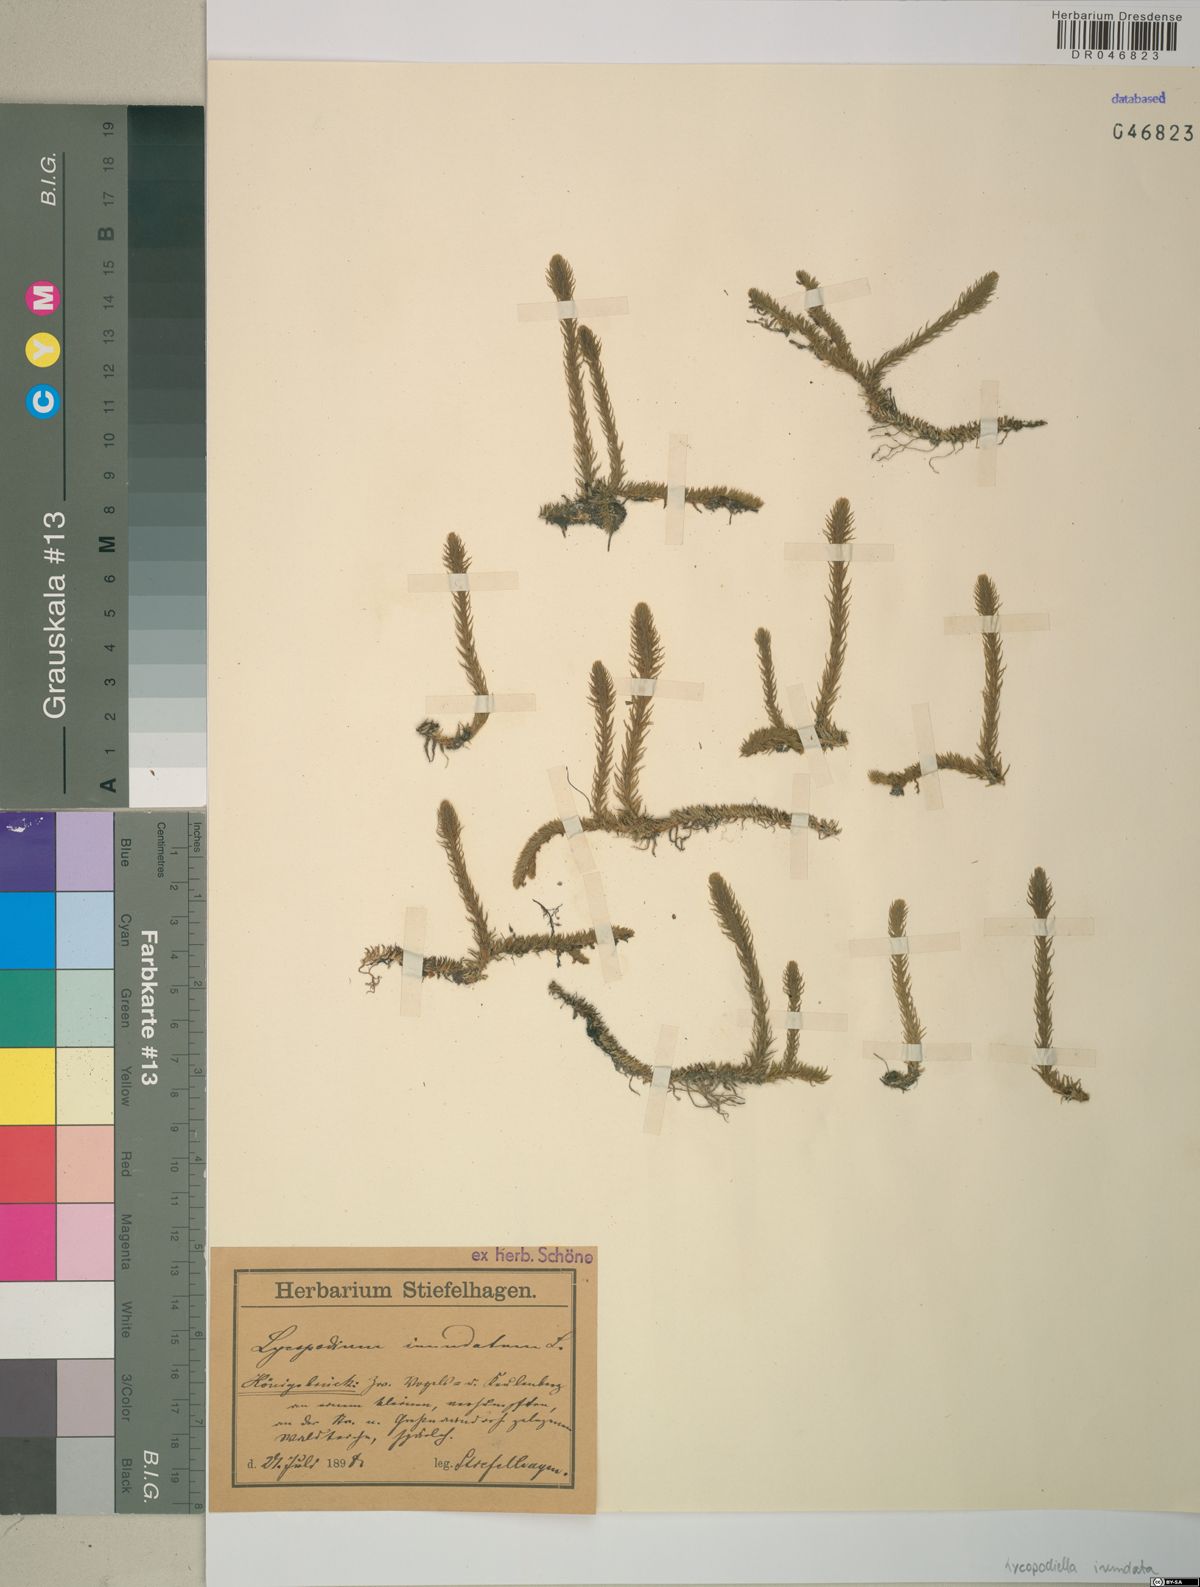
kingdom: Plantae
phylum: Tracheophyta
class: Lycopodiopsida
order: Lycopodiales
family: Lycopodiaceae
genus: Lycopodiella
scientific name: Lycopodiella inundata
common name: Marsh clubmoss
